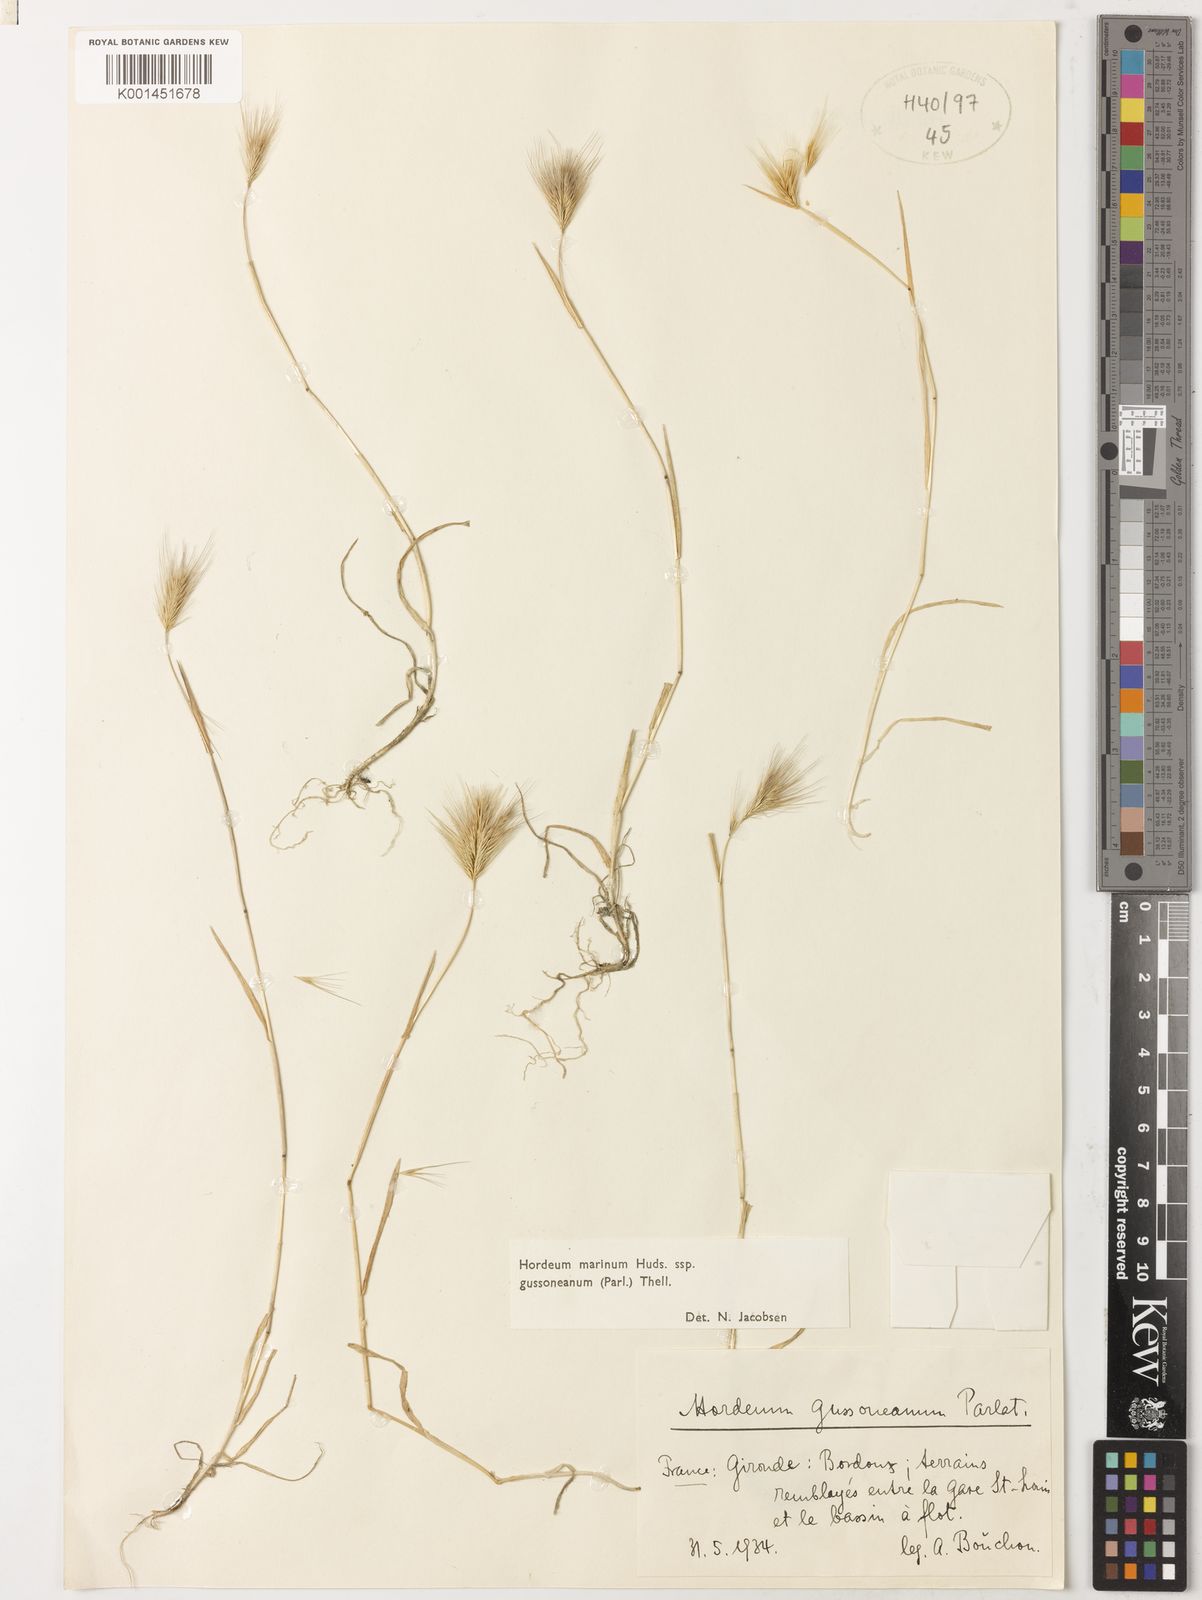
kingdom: Plantae
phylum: Tracheophyta
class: Liliopsida
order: Poales
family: Poaceae
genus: Hordeum
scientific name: Hordeum marinum
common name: Sea barley
